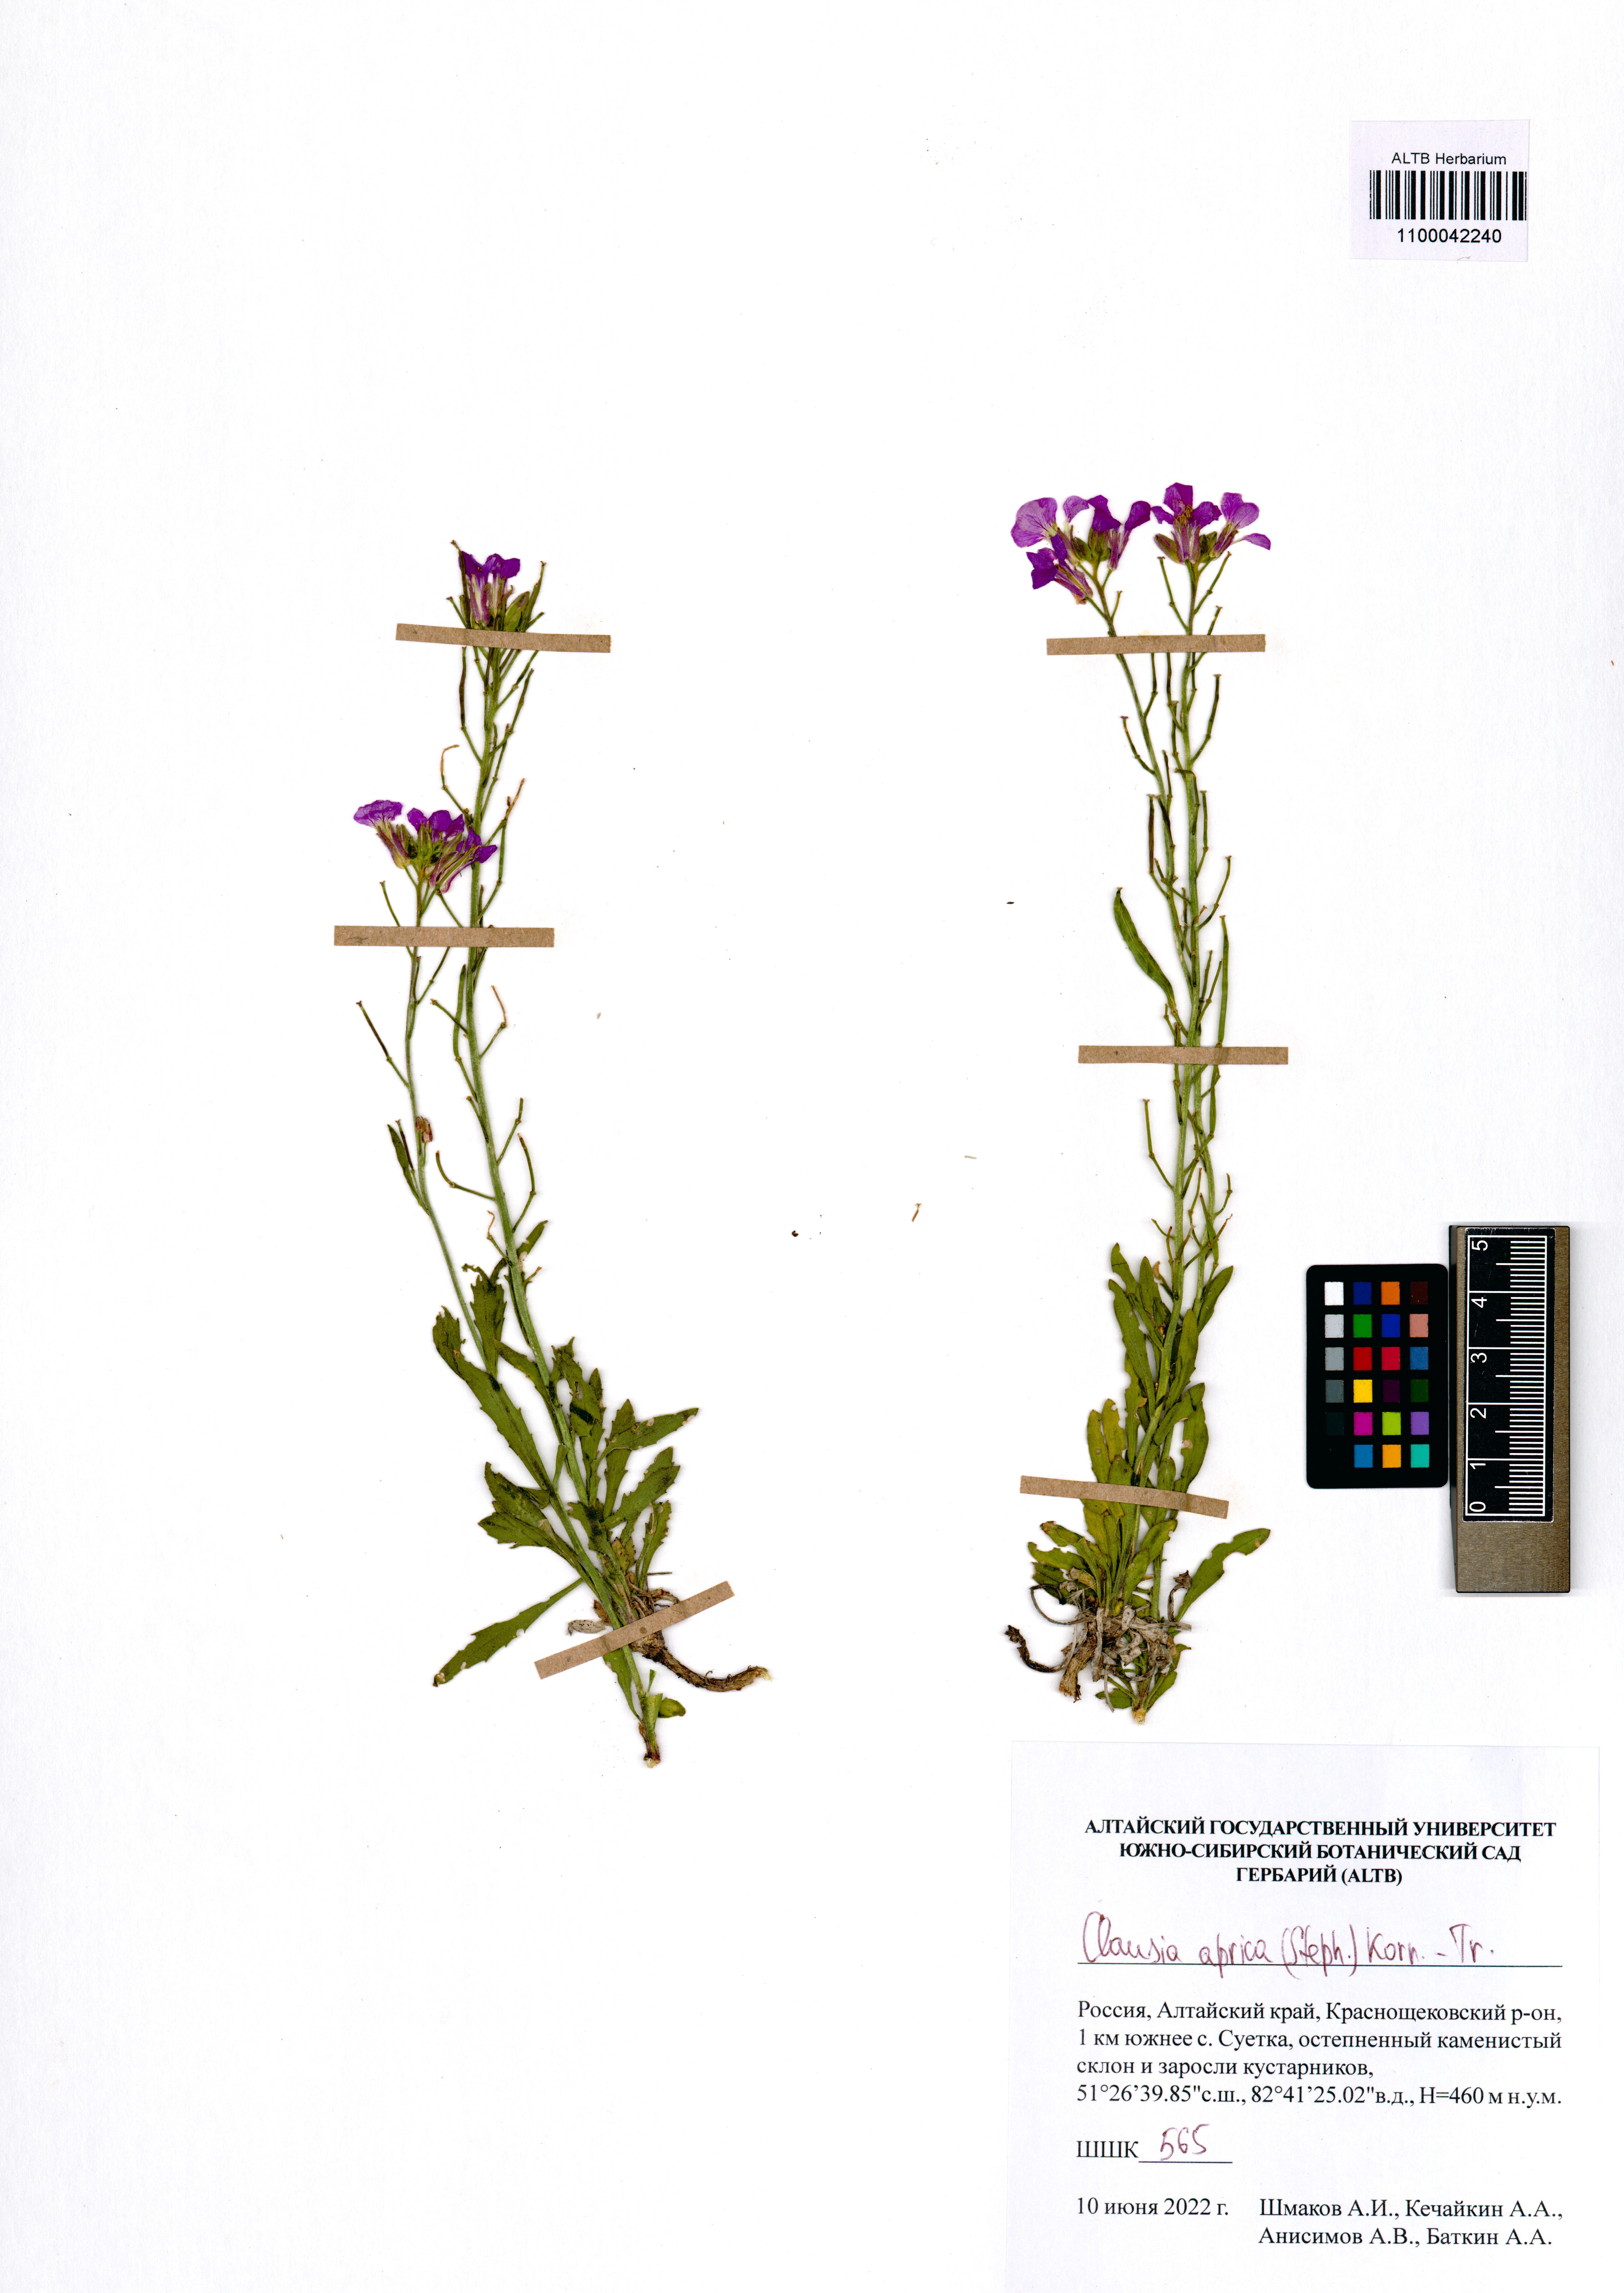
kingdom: Plantae
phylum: Tracheophyta
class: Magnoliopsida
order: Brassicales
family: Brassicaceae
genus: Clausia
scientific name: Clausia aprica
